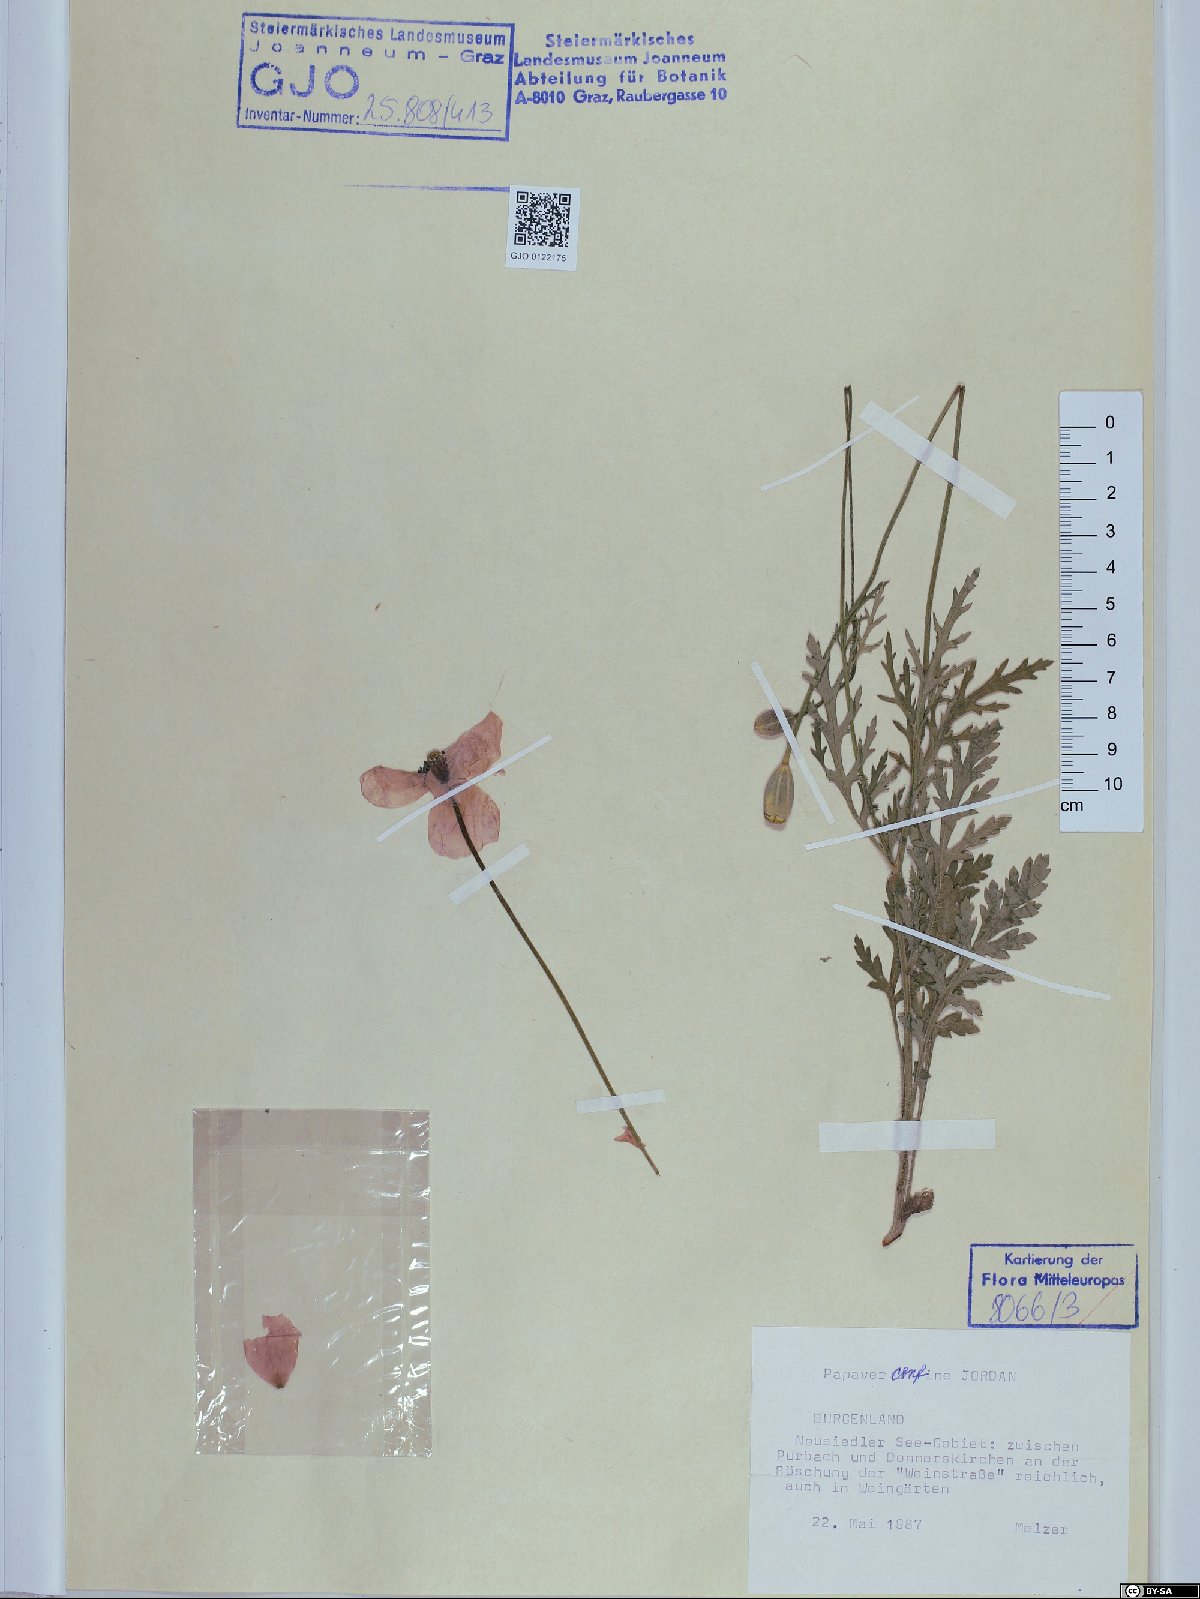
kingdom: Plantae
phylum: Tracheophyta
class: Magnoliopsida
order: Ranunculales
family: Papaveraceae
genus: Papaver
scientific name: Papaver confine
